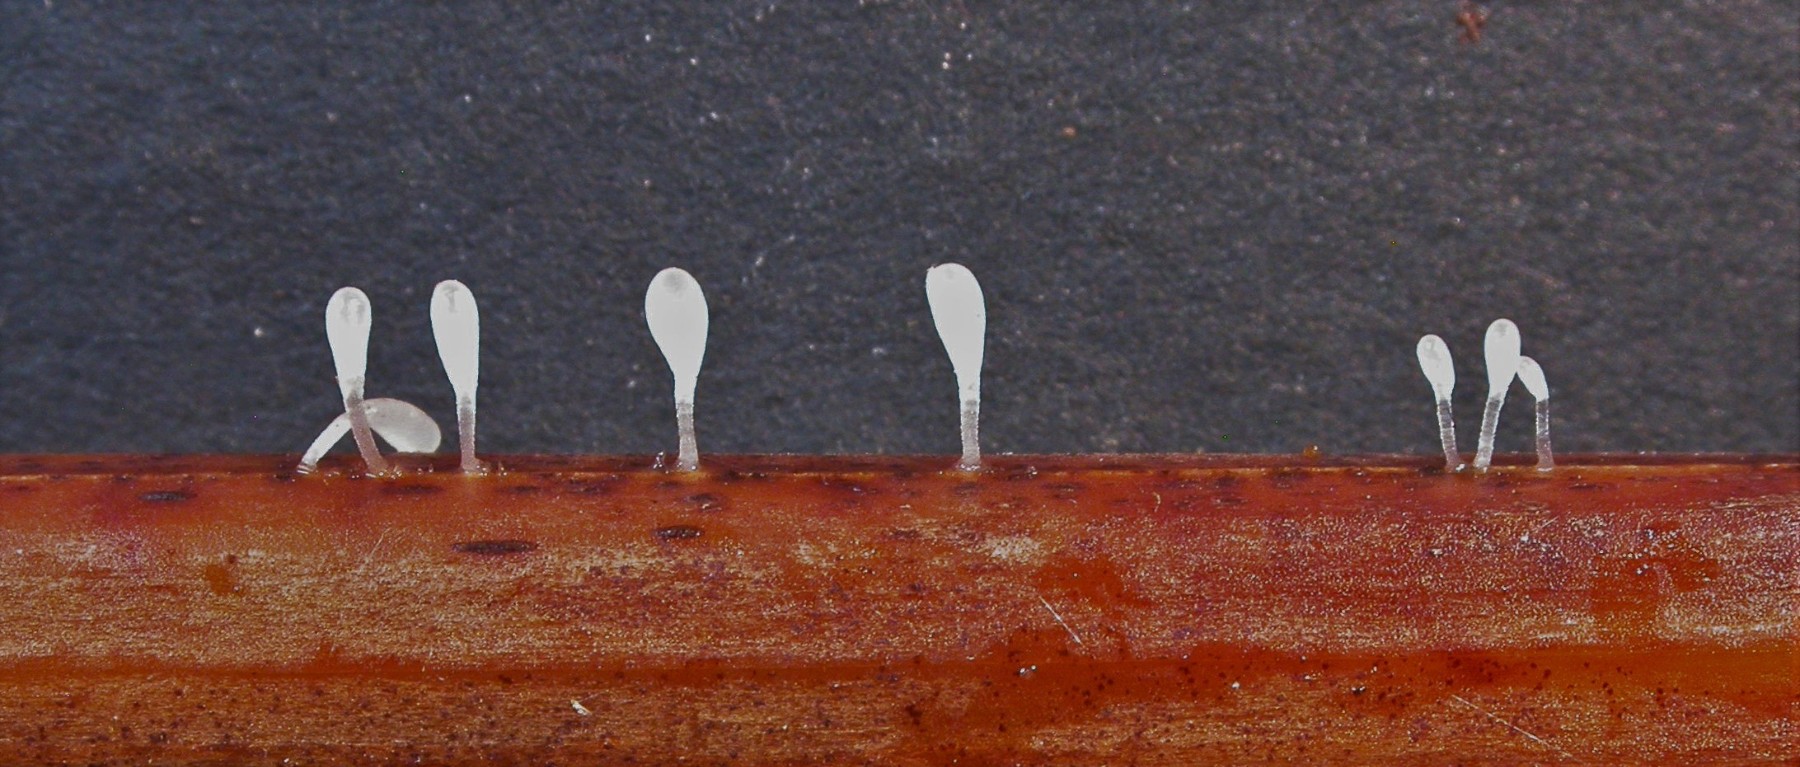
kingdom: Fungi
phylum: Basidiomycota
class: Agaricomycetes
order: Agaricales
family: Typhulaceae
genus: Typhula
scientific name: Typhula quisquiliaris
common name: ørnebregne-trådkølle
